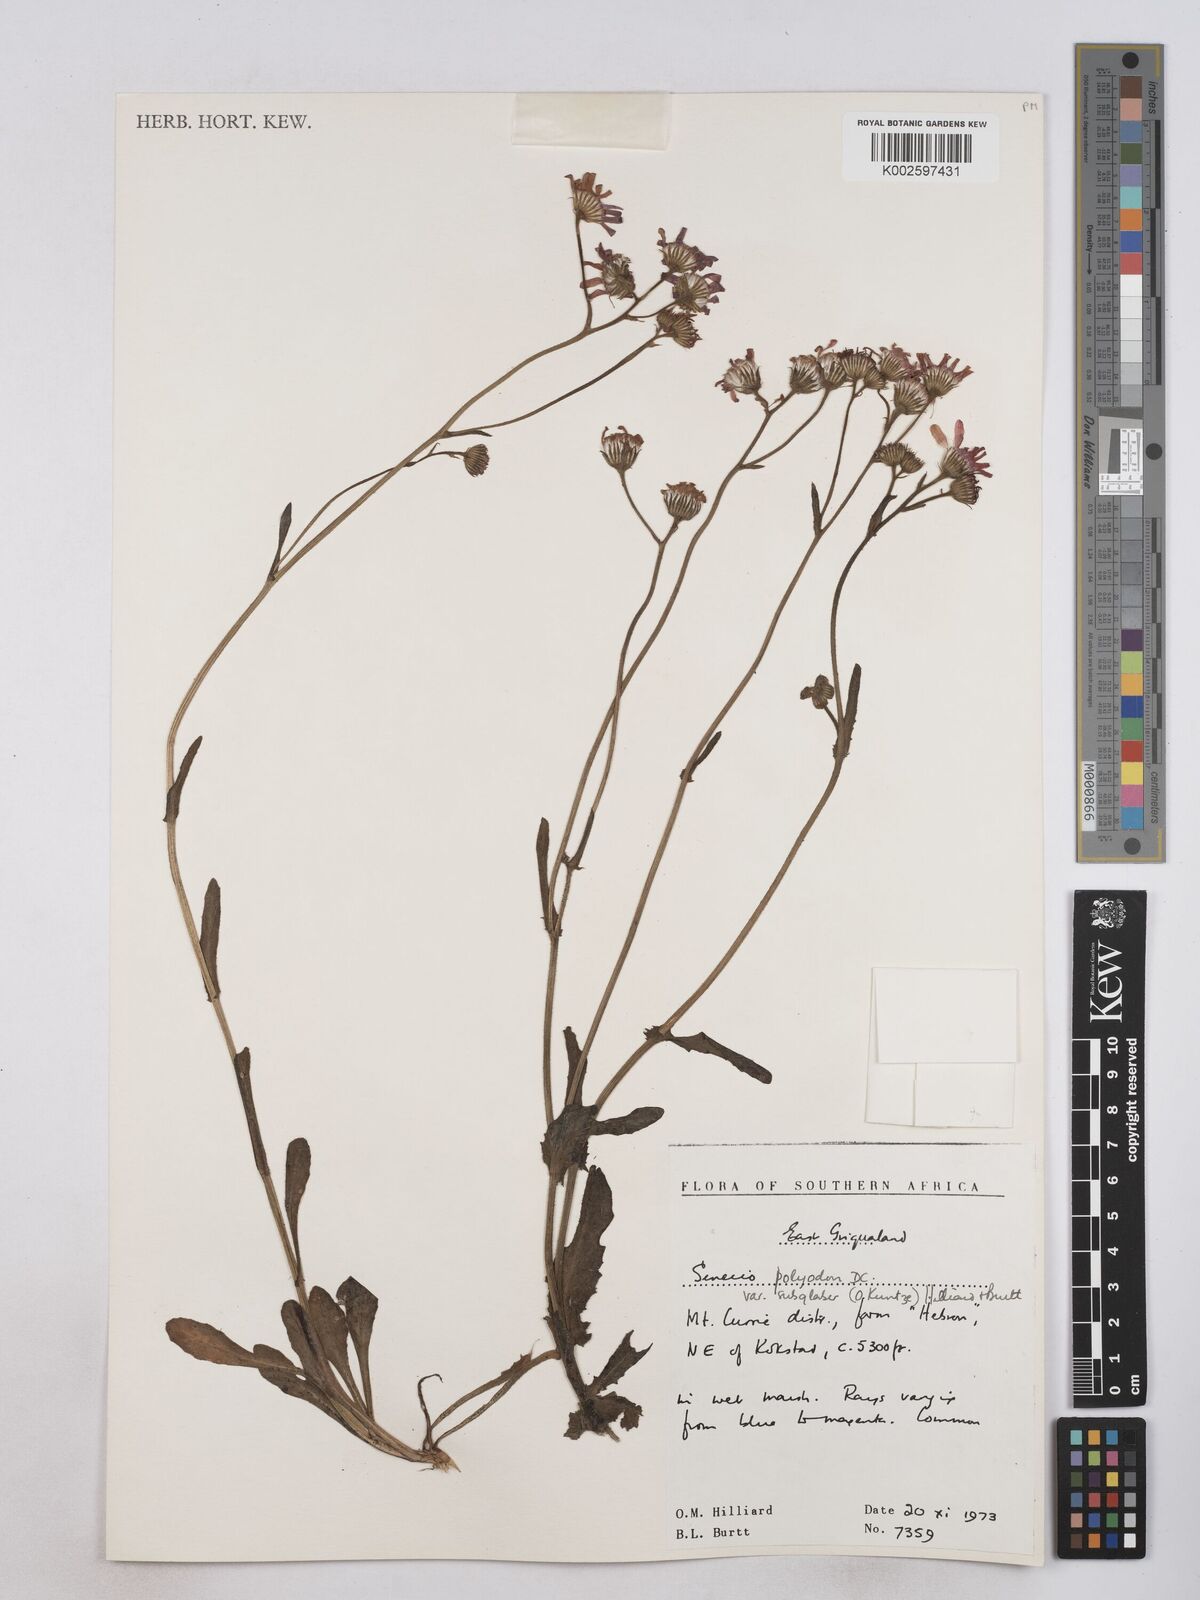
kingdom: Plantae
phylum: Tracheophyta
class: Magnoliopsida
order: Asterales
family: Asteraceae
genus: Senecio
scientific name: Senecio polyodon
